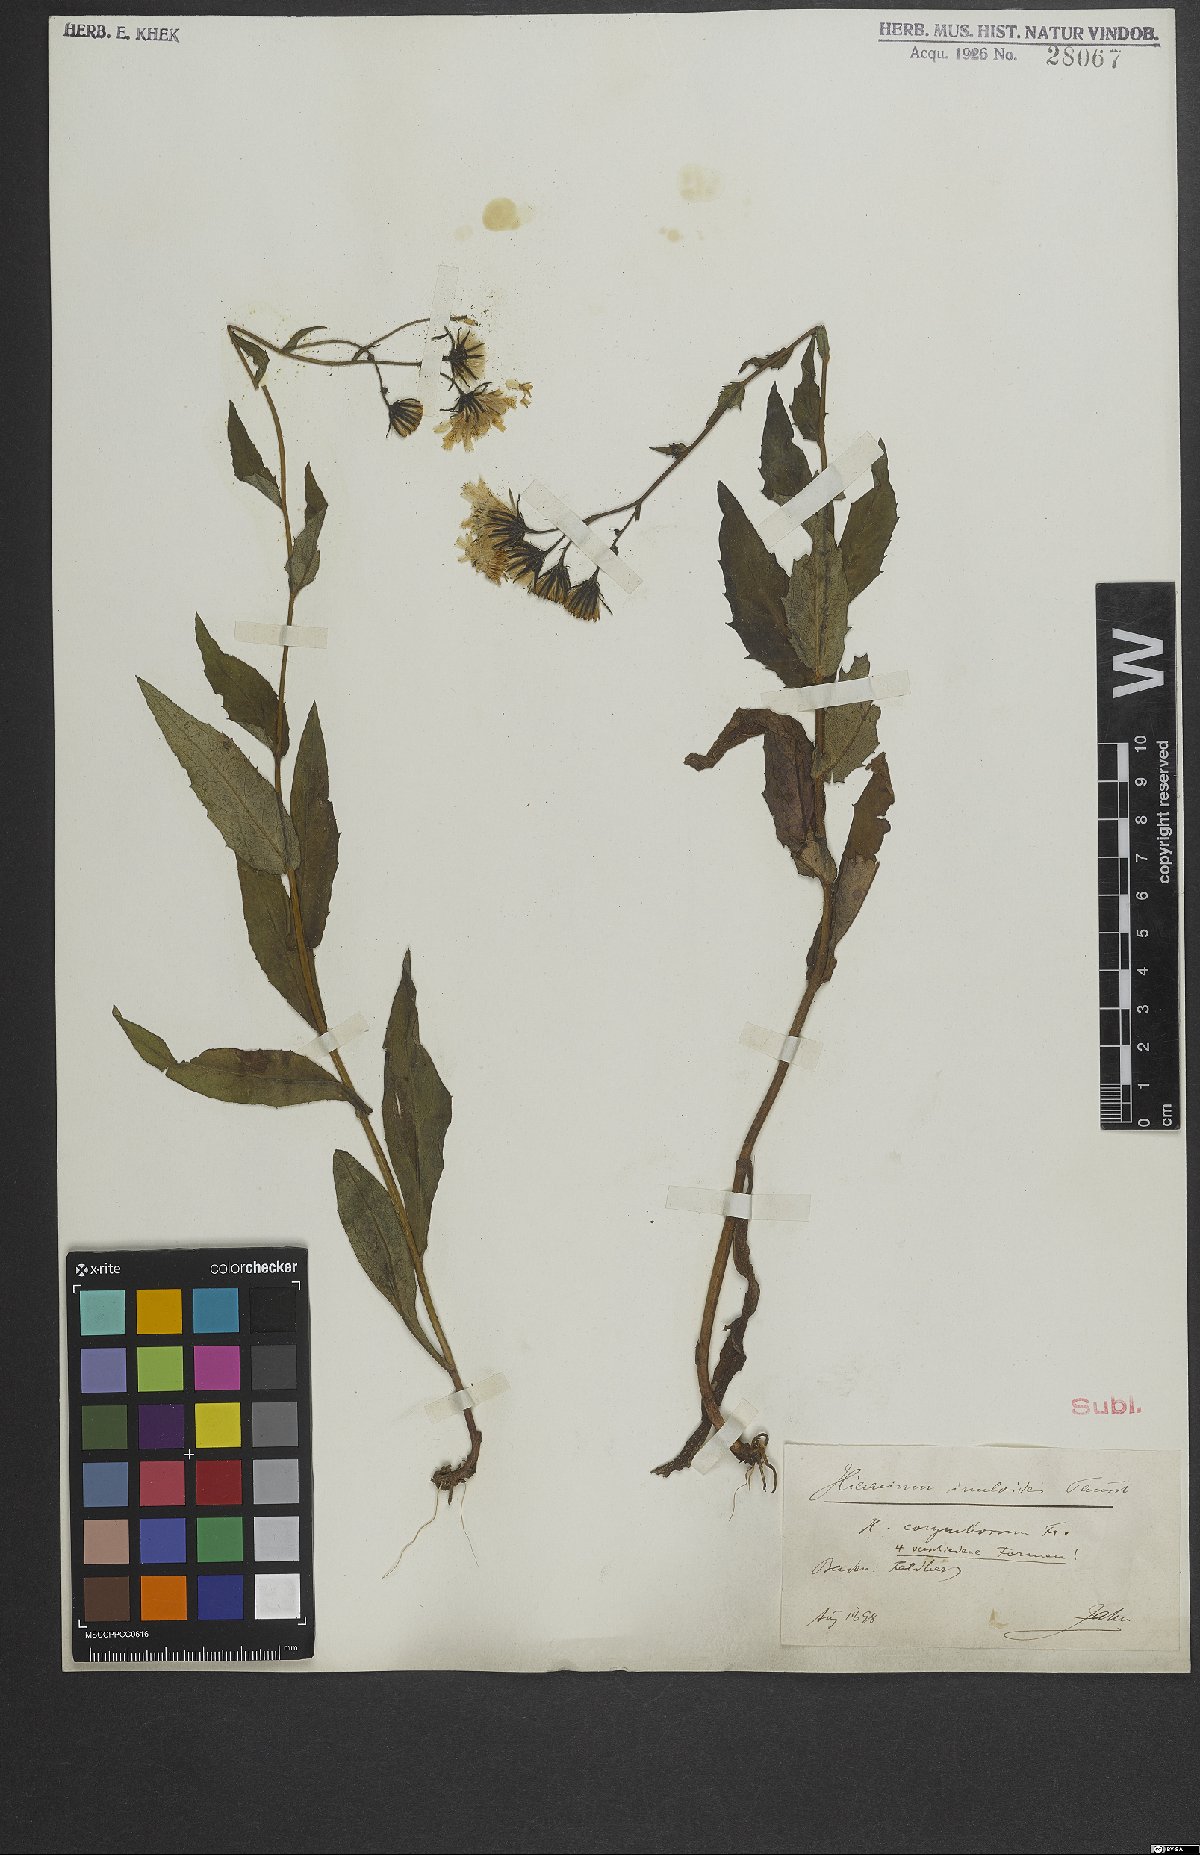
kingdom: Plantae
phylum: Tracheophyta
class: Magnoliopsida
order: Asterales
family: Asteraceae
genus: Hieracium
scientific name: Hieracium inuloides
